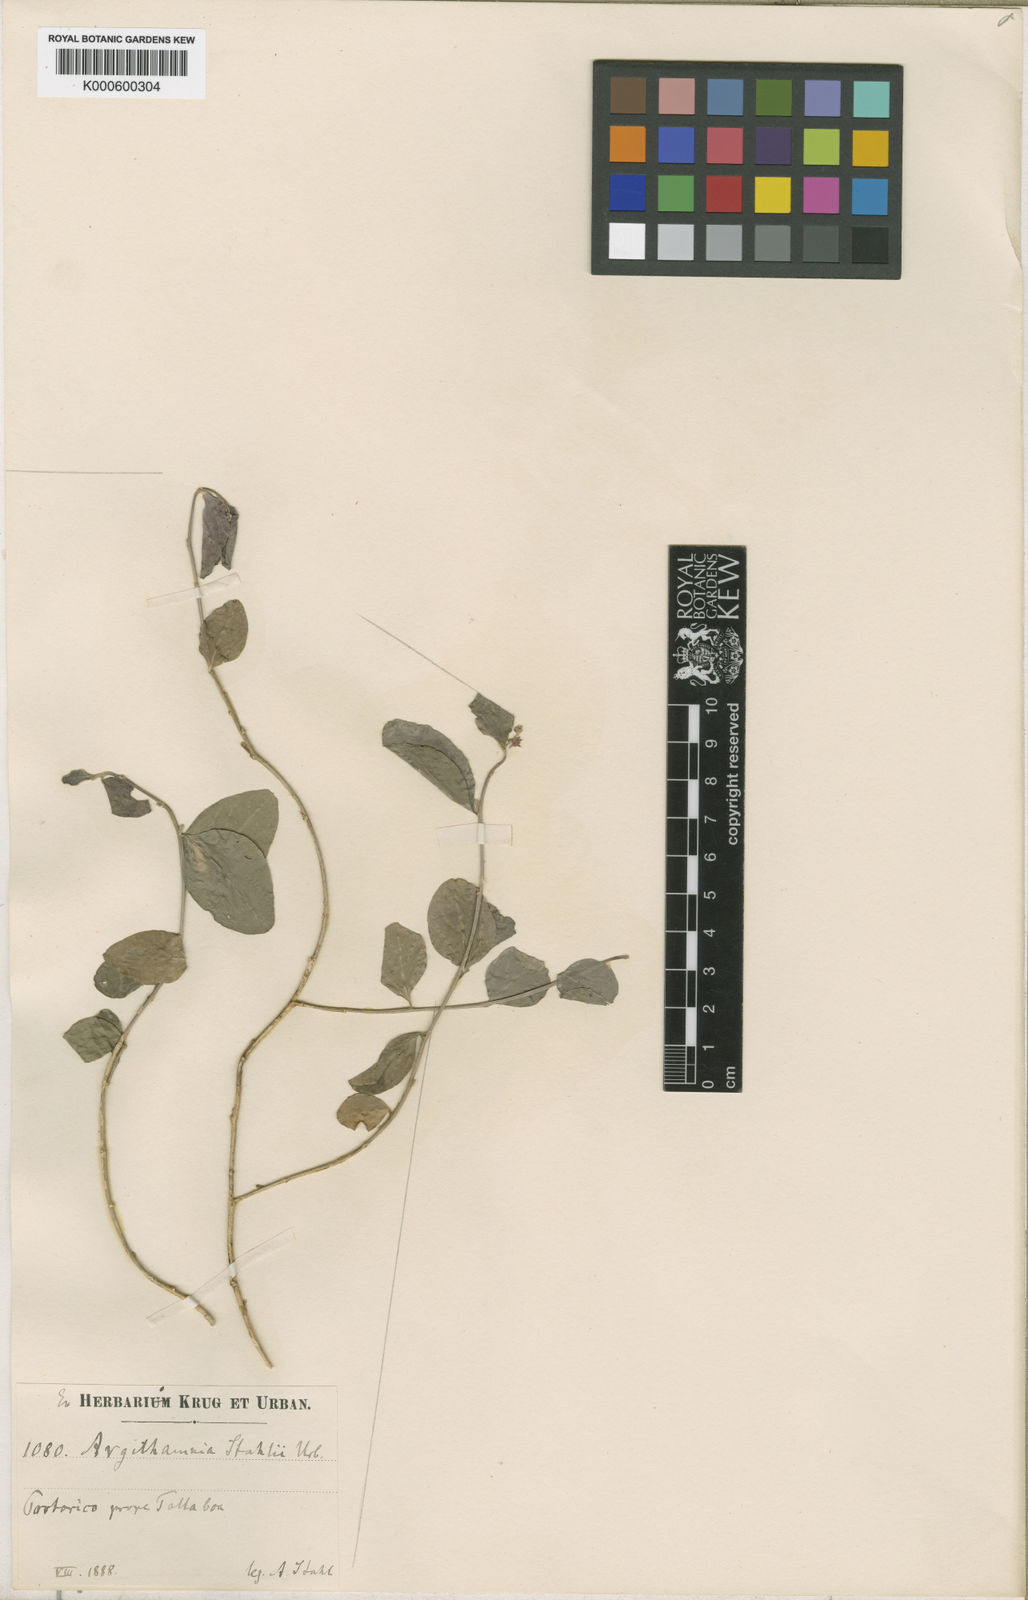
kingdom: Plantae
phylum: Tracheophyta
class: Magnoliopsida
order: Malpighiales
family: Euphorbiaceae
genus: Argythamnia
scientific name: Argythamnia stahlii
